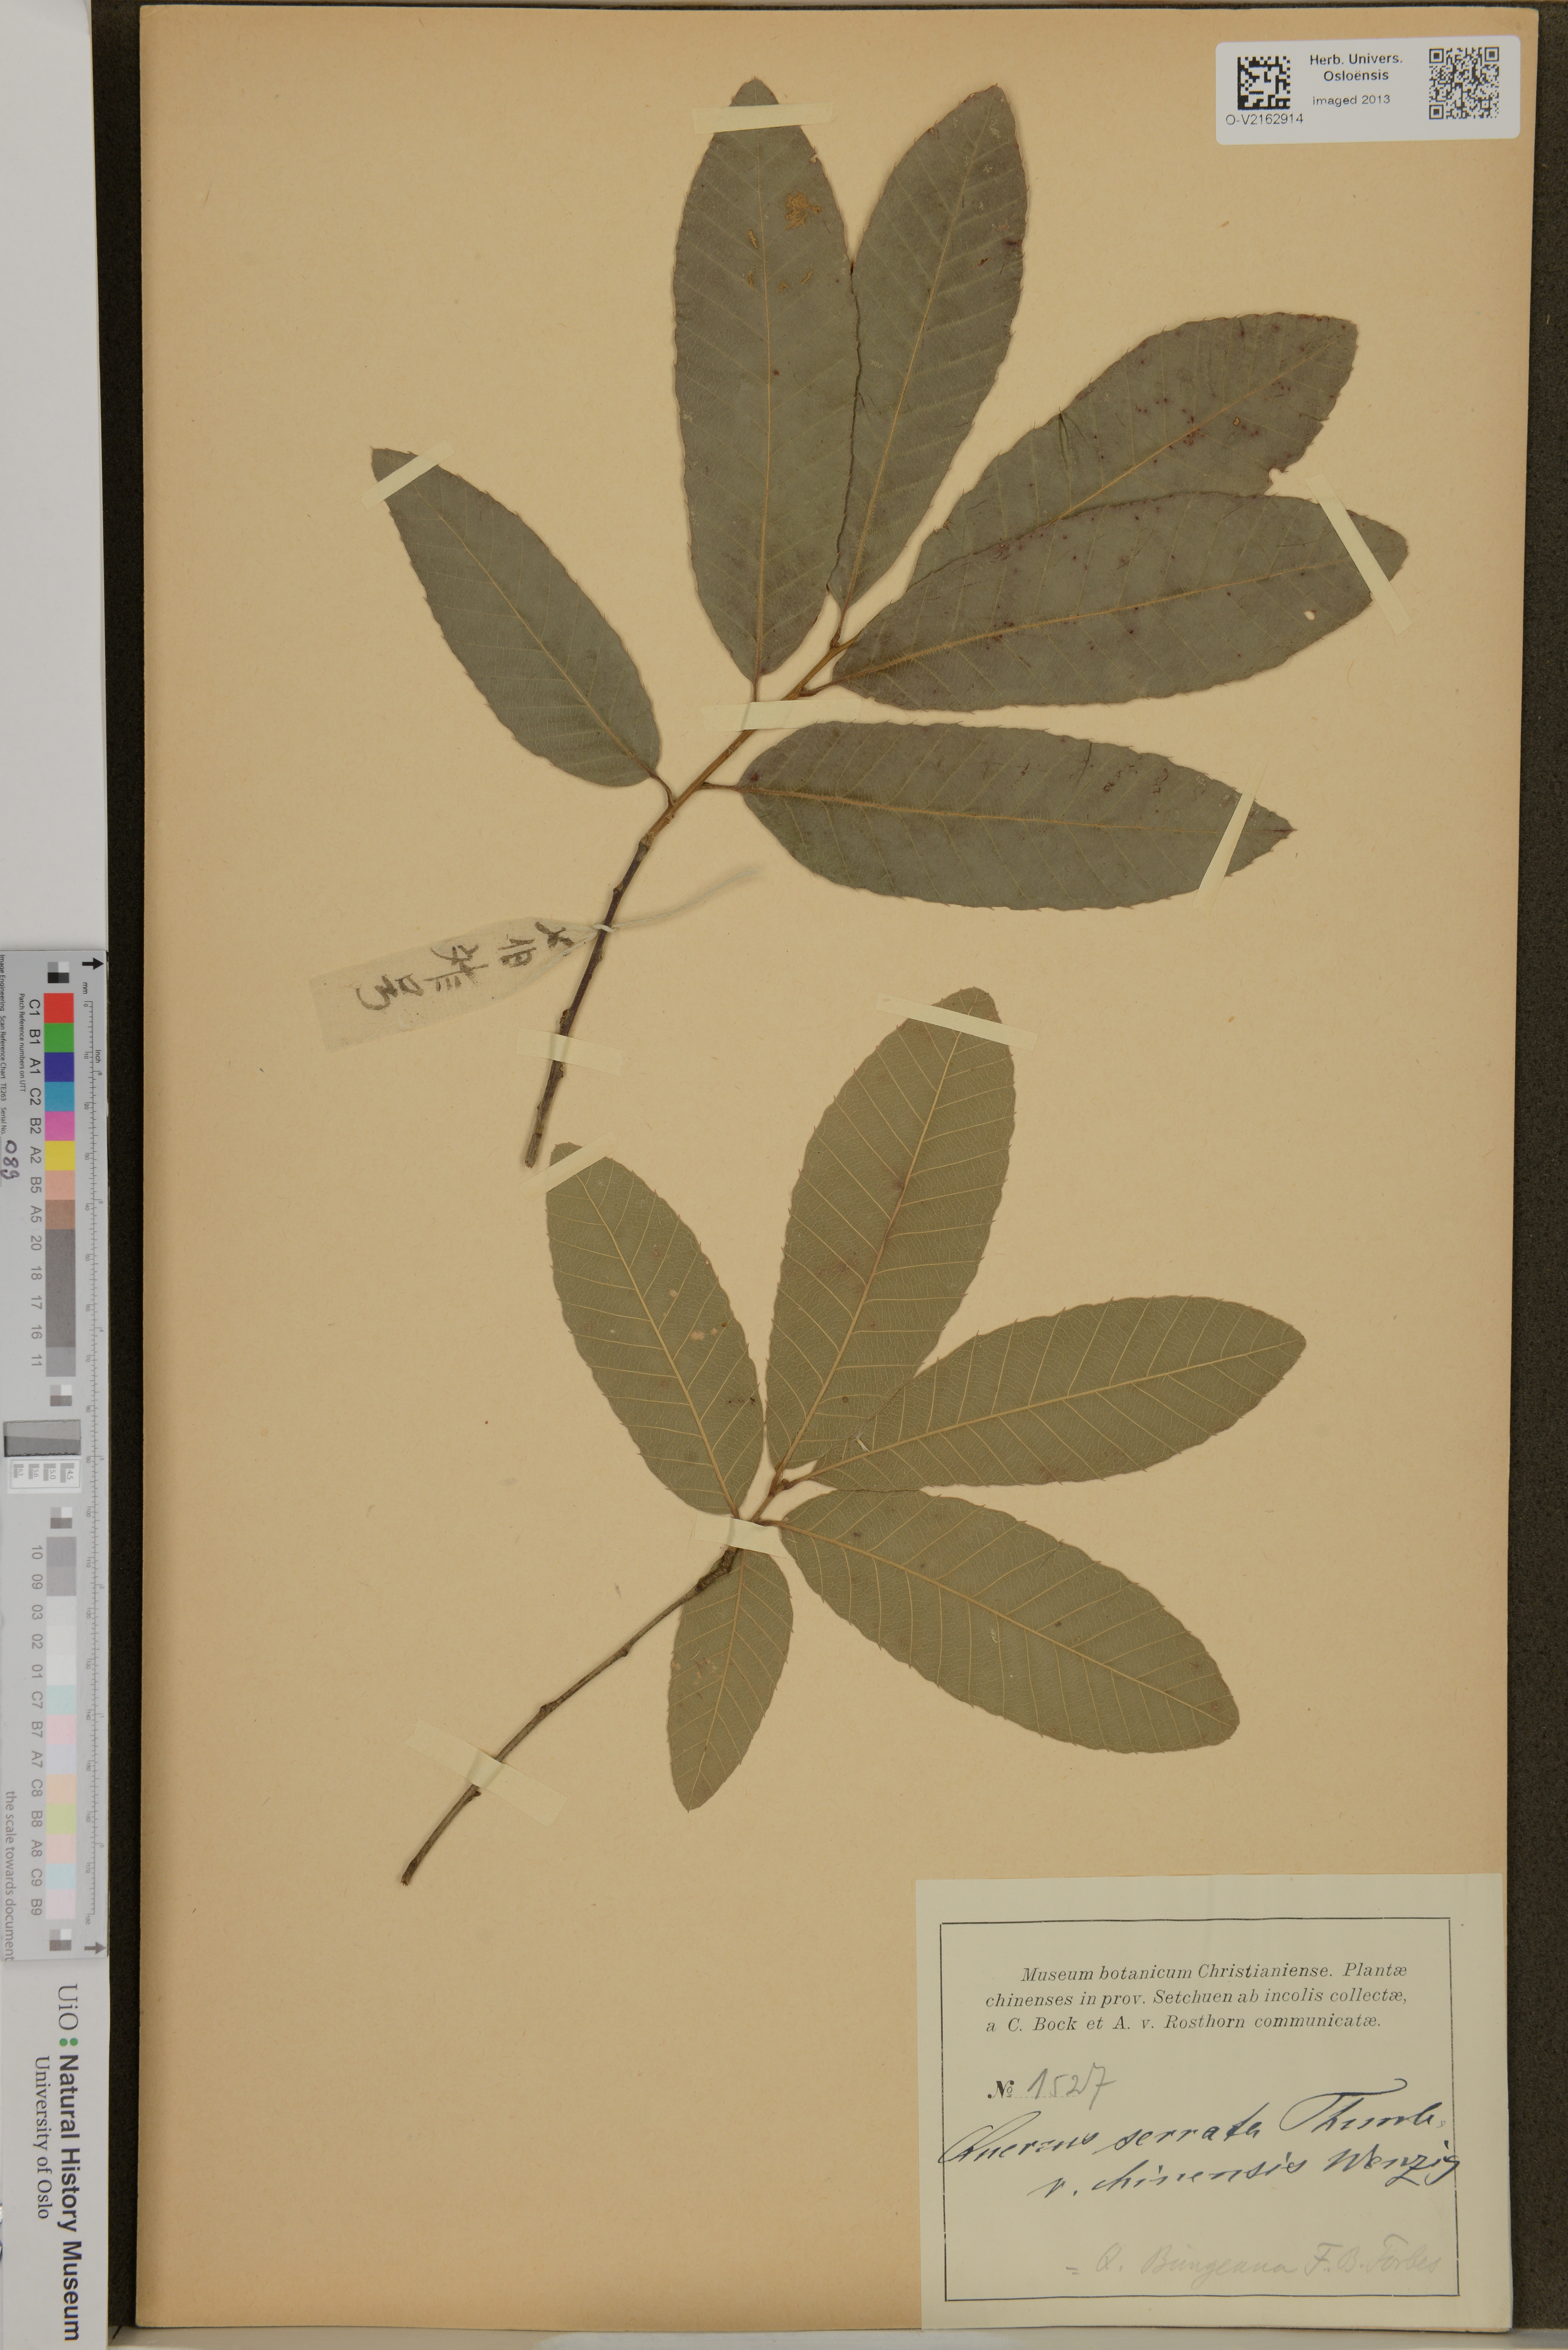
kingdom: Plantae
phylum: Tracheophyta
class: Magnoliopsida
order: Fagales
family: Fagaceae
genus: Quercus
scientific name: Quercus variabilis
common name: Chinese cork oak
